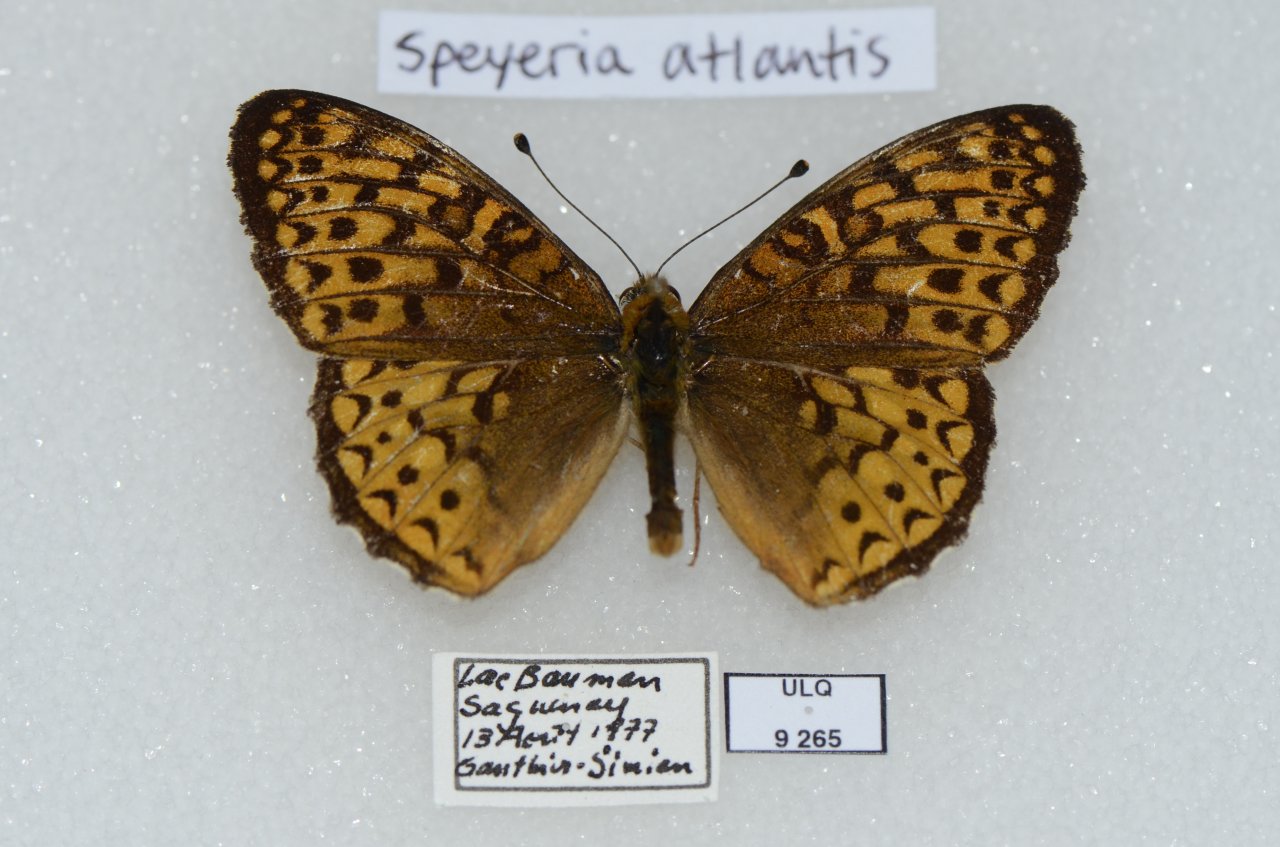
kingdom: Animalia
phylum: Arthropoda
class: Insecta
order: Lepidoptera
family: Nymphalidae
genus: Speyeria
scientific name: Speyeria atlantis
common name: Atlantis Fritillary
